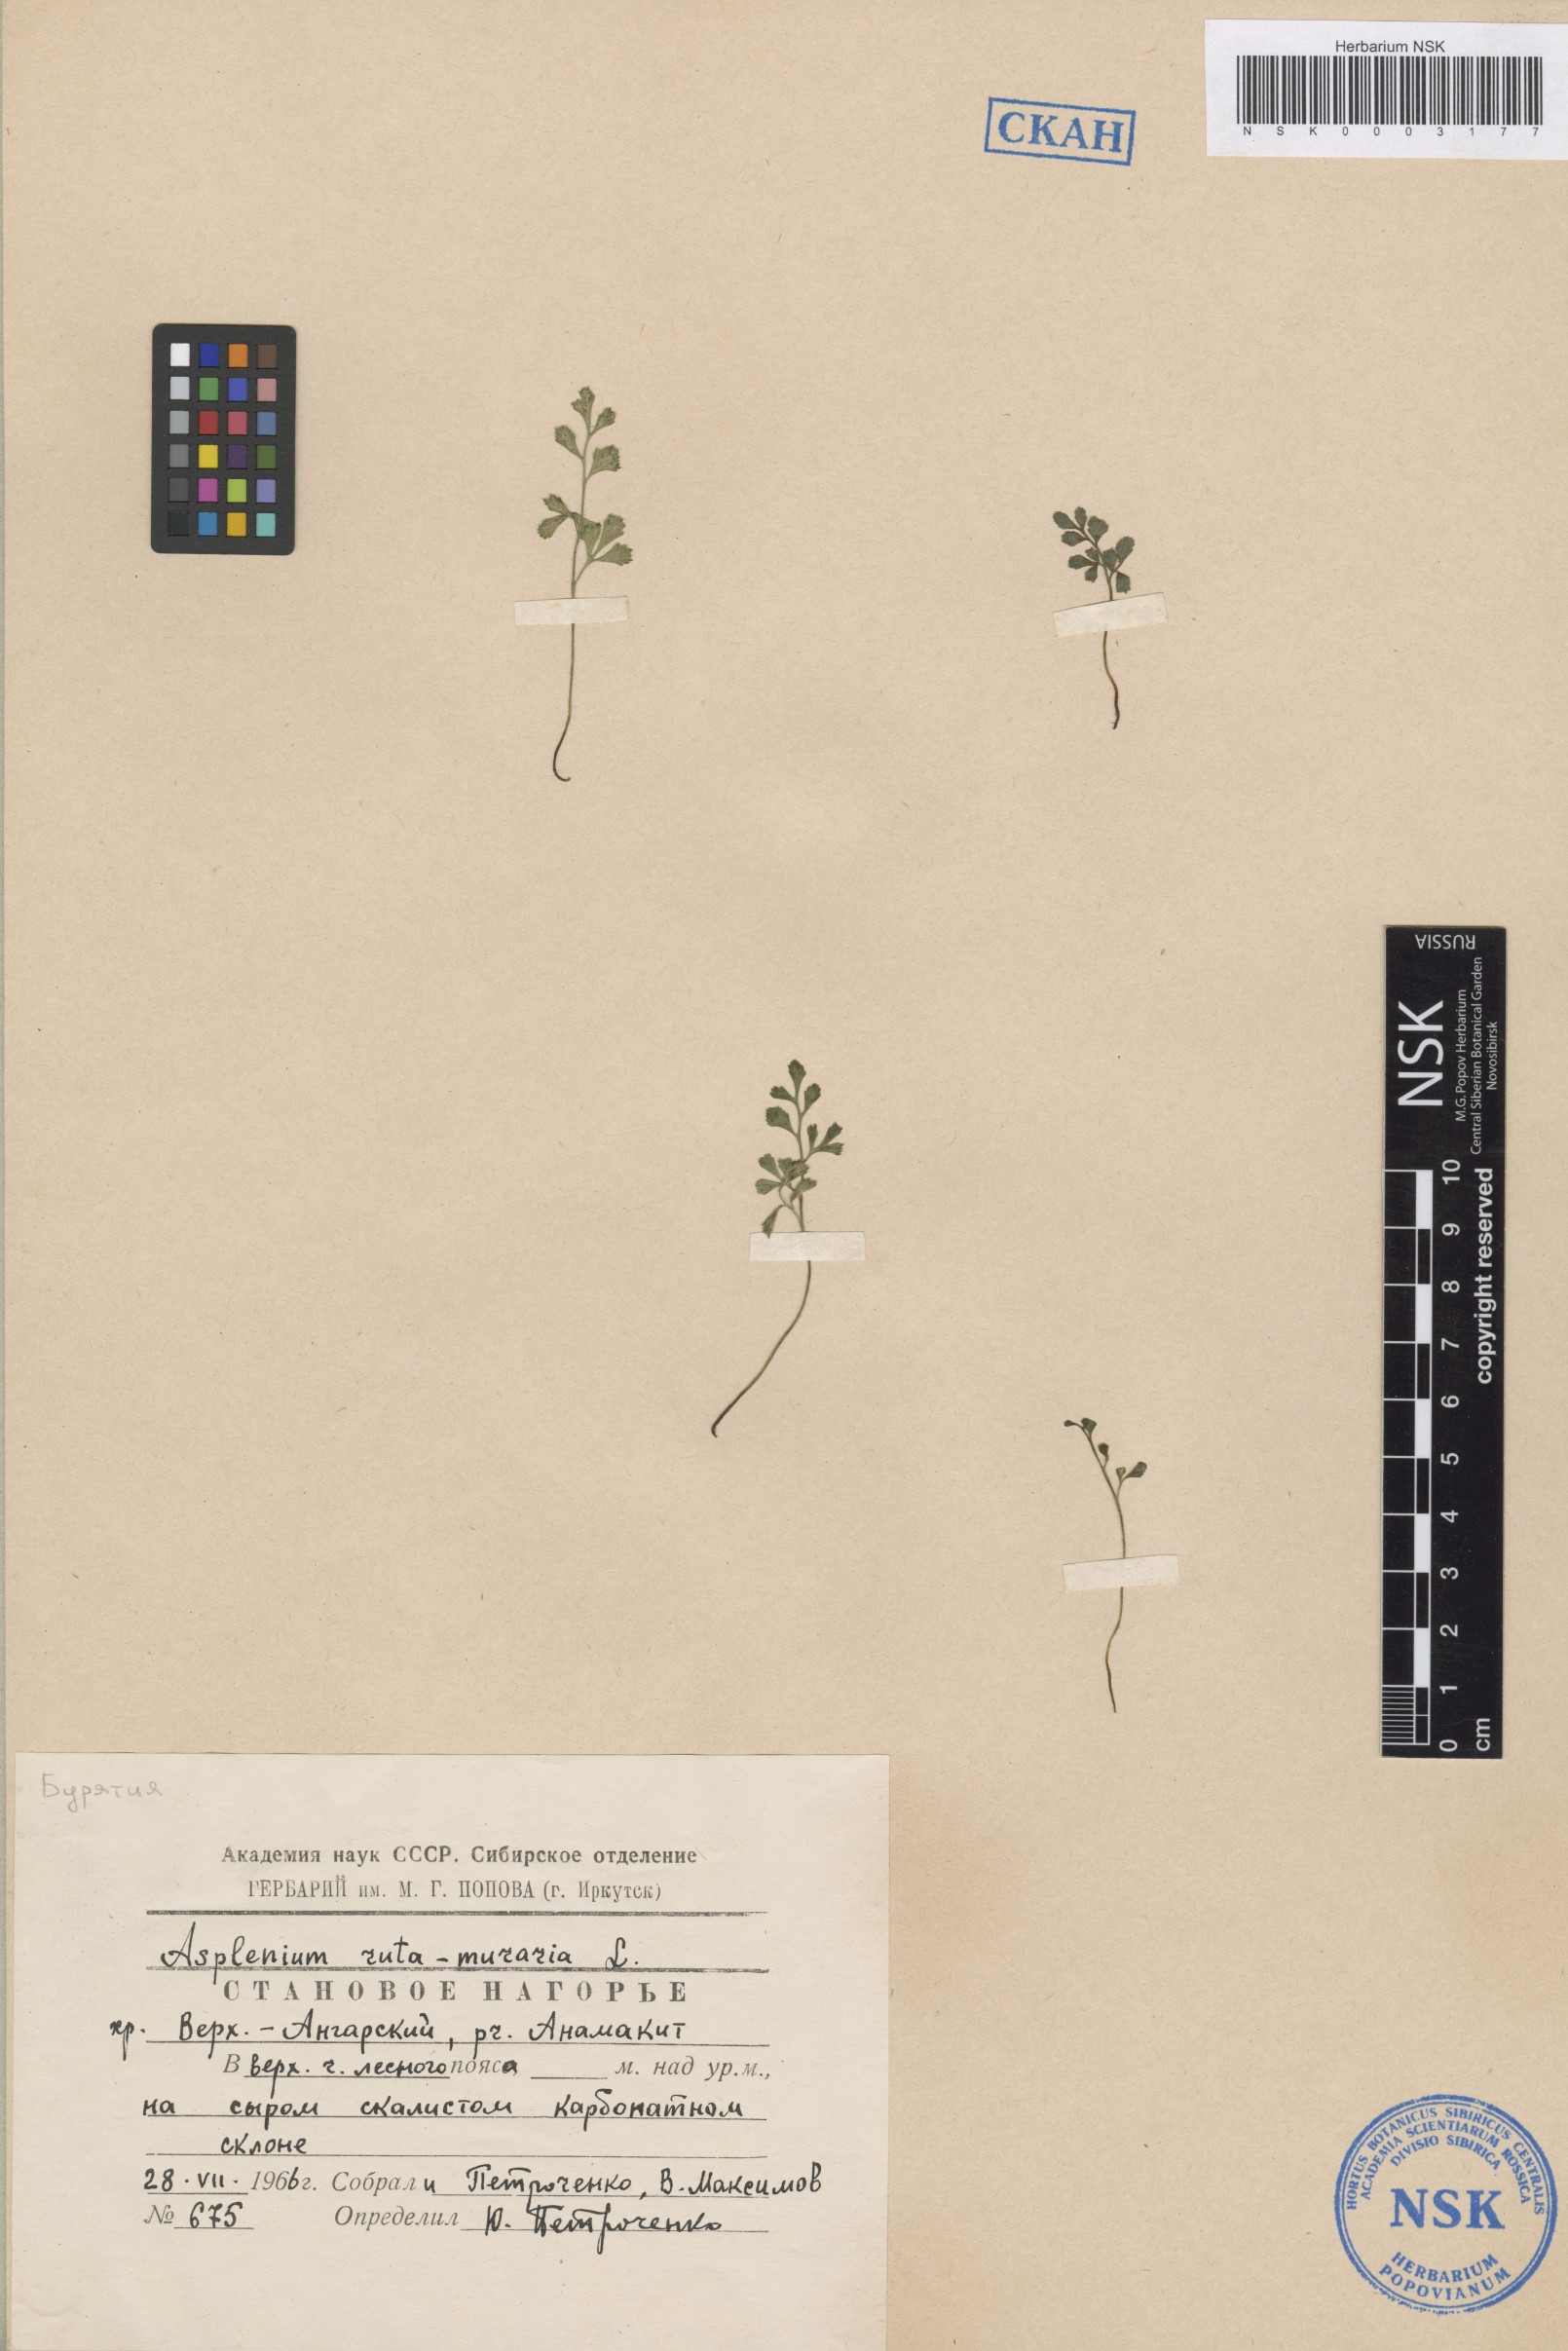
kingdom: Plantae
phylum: Tracheophyta
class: Polypodiopsida
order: Polypodiales
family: Aspleniaceae
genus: Asplenium
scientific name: Asplenium ruta-muraria
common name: Wall-rue
